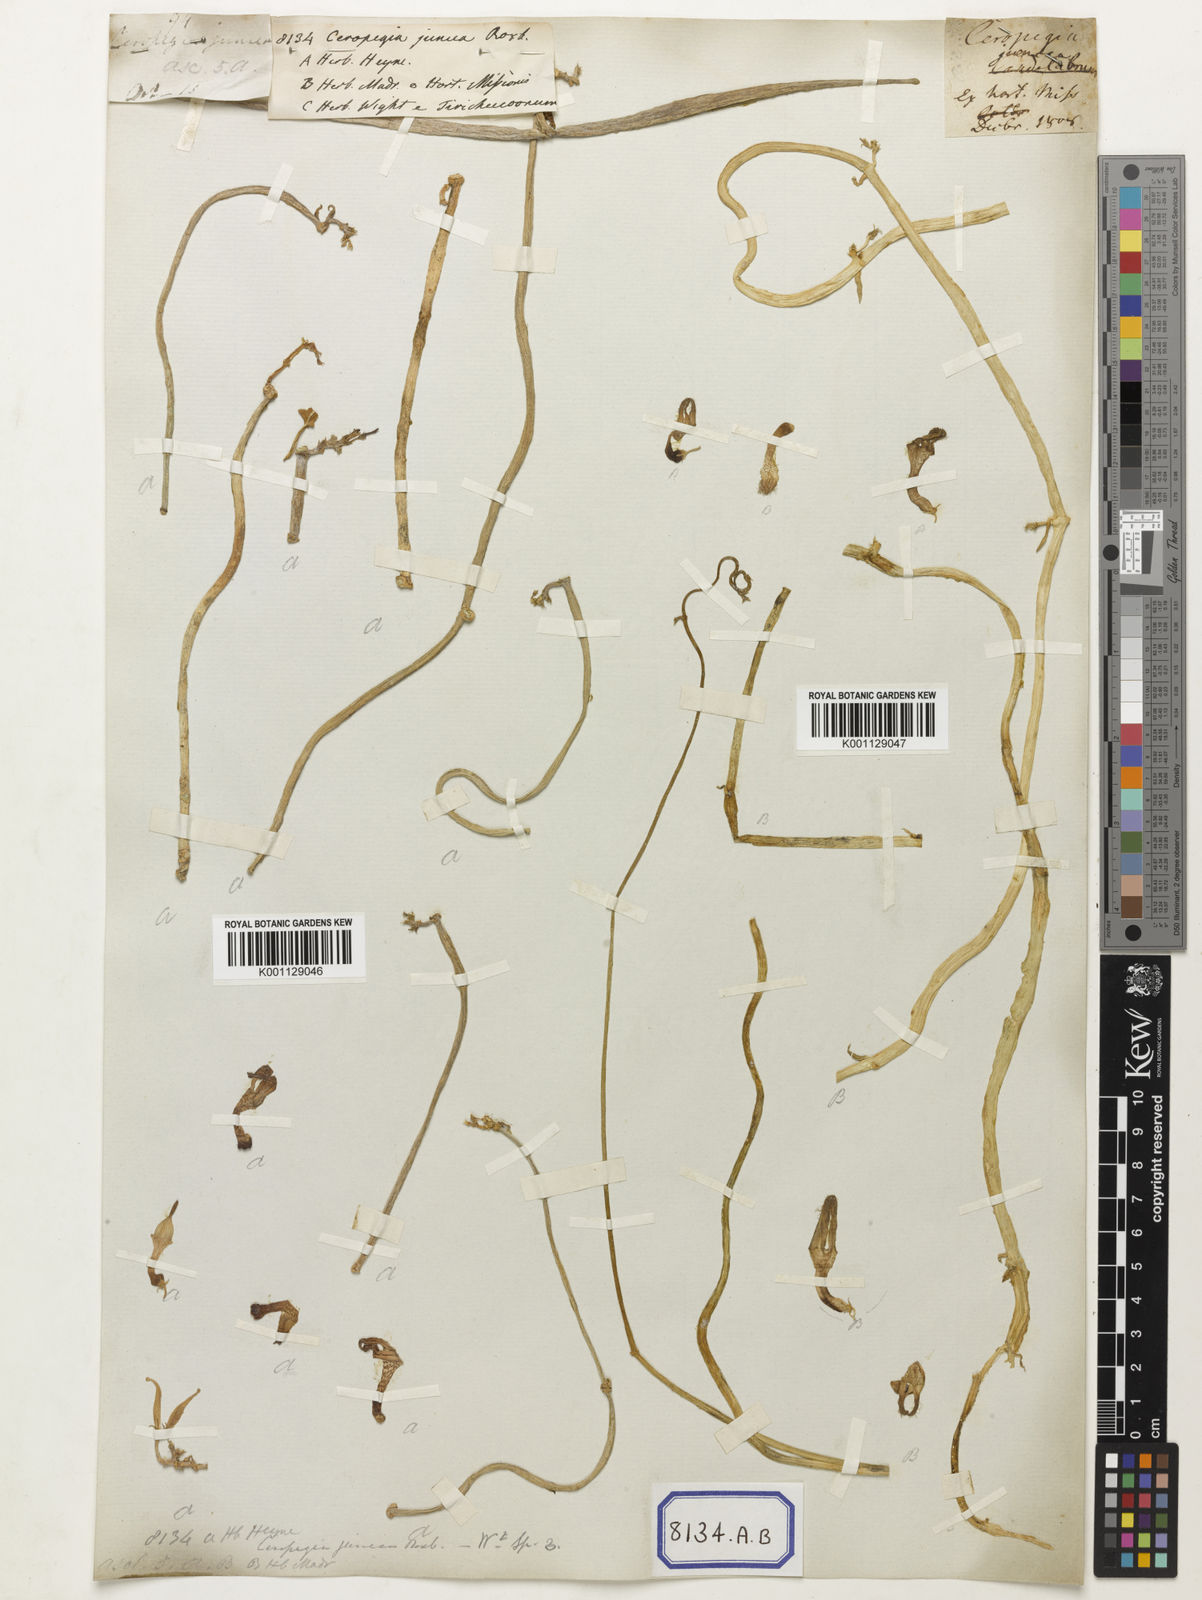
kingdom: Plantae
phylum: Tracheophyta
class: Magnoliopsida
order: Gentianales
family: Apocynaceae
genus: Ceropegia
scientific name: Ceropegia juncea
